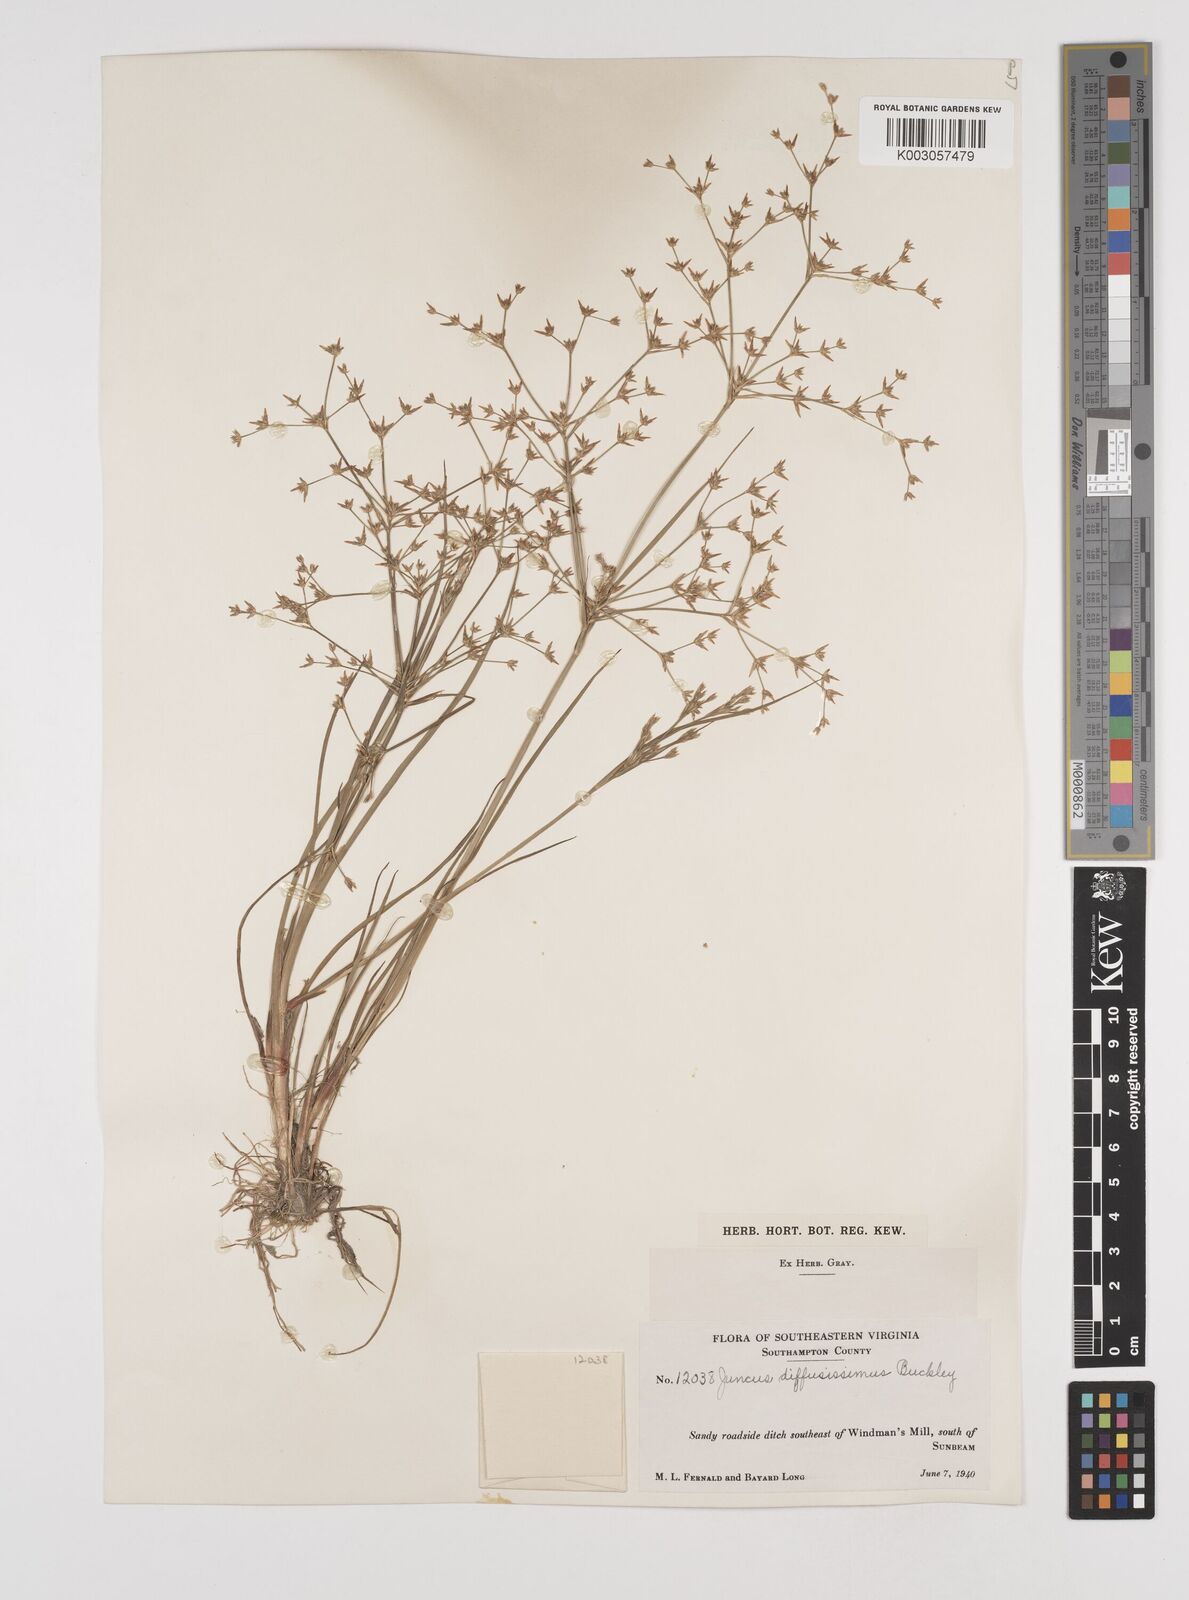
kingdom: Plantae
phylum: Tracheophyta
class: Liliopsida
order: Poales
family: Juncaceae
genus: Juncus
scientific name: Juncus diffusissimus
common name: Slimpod rush
